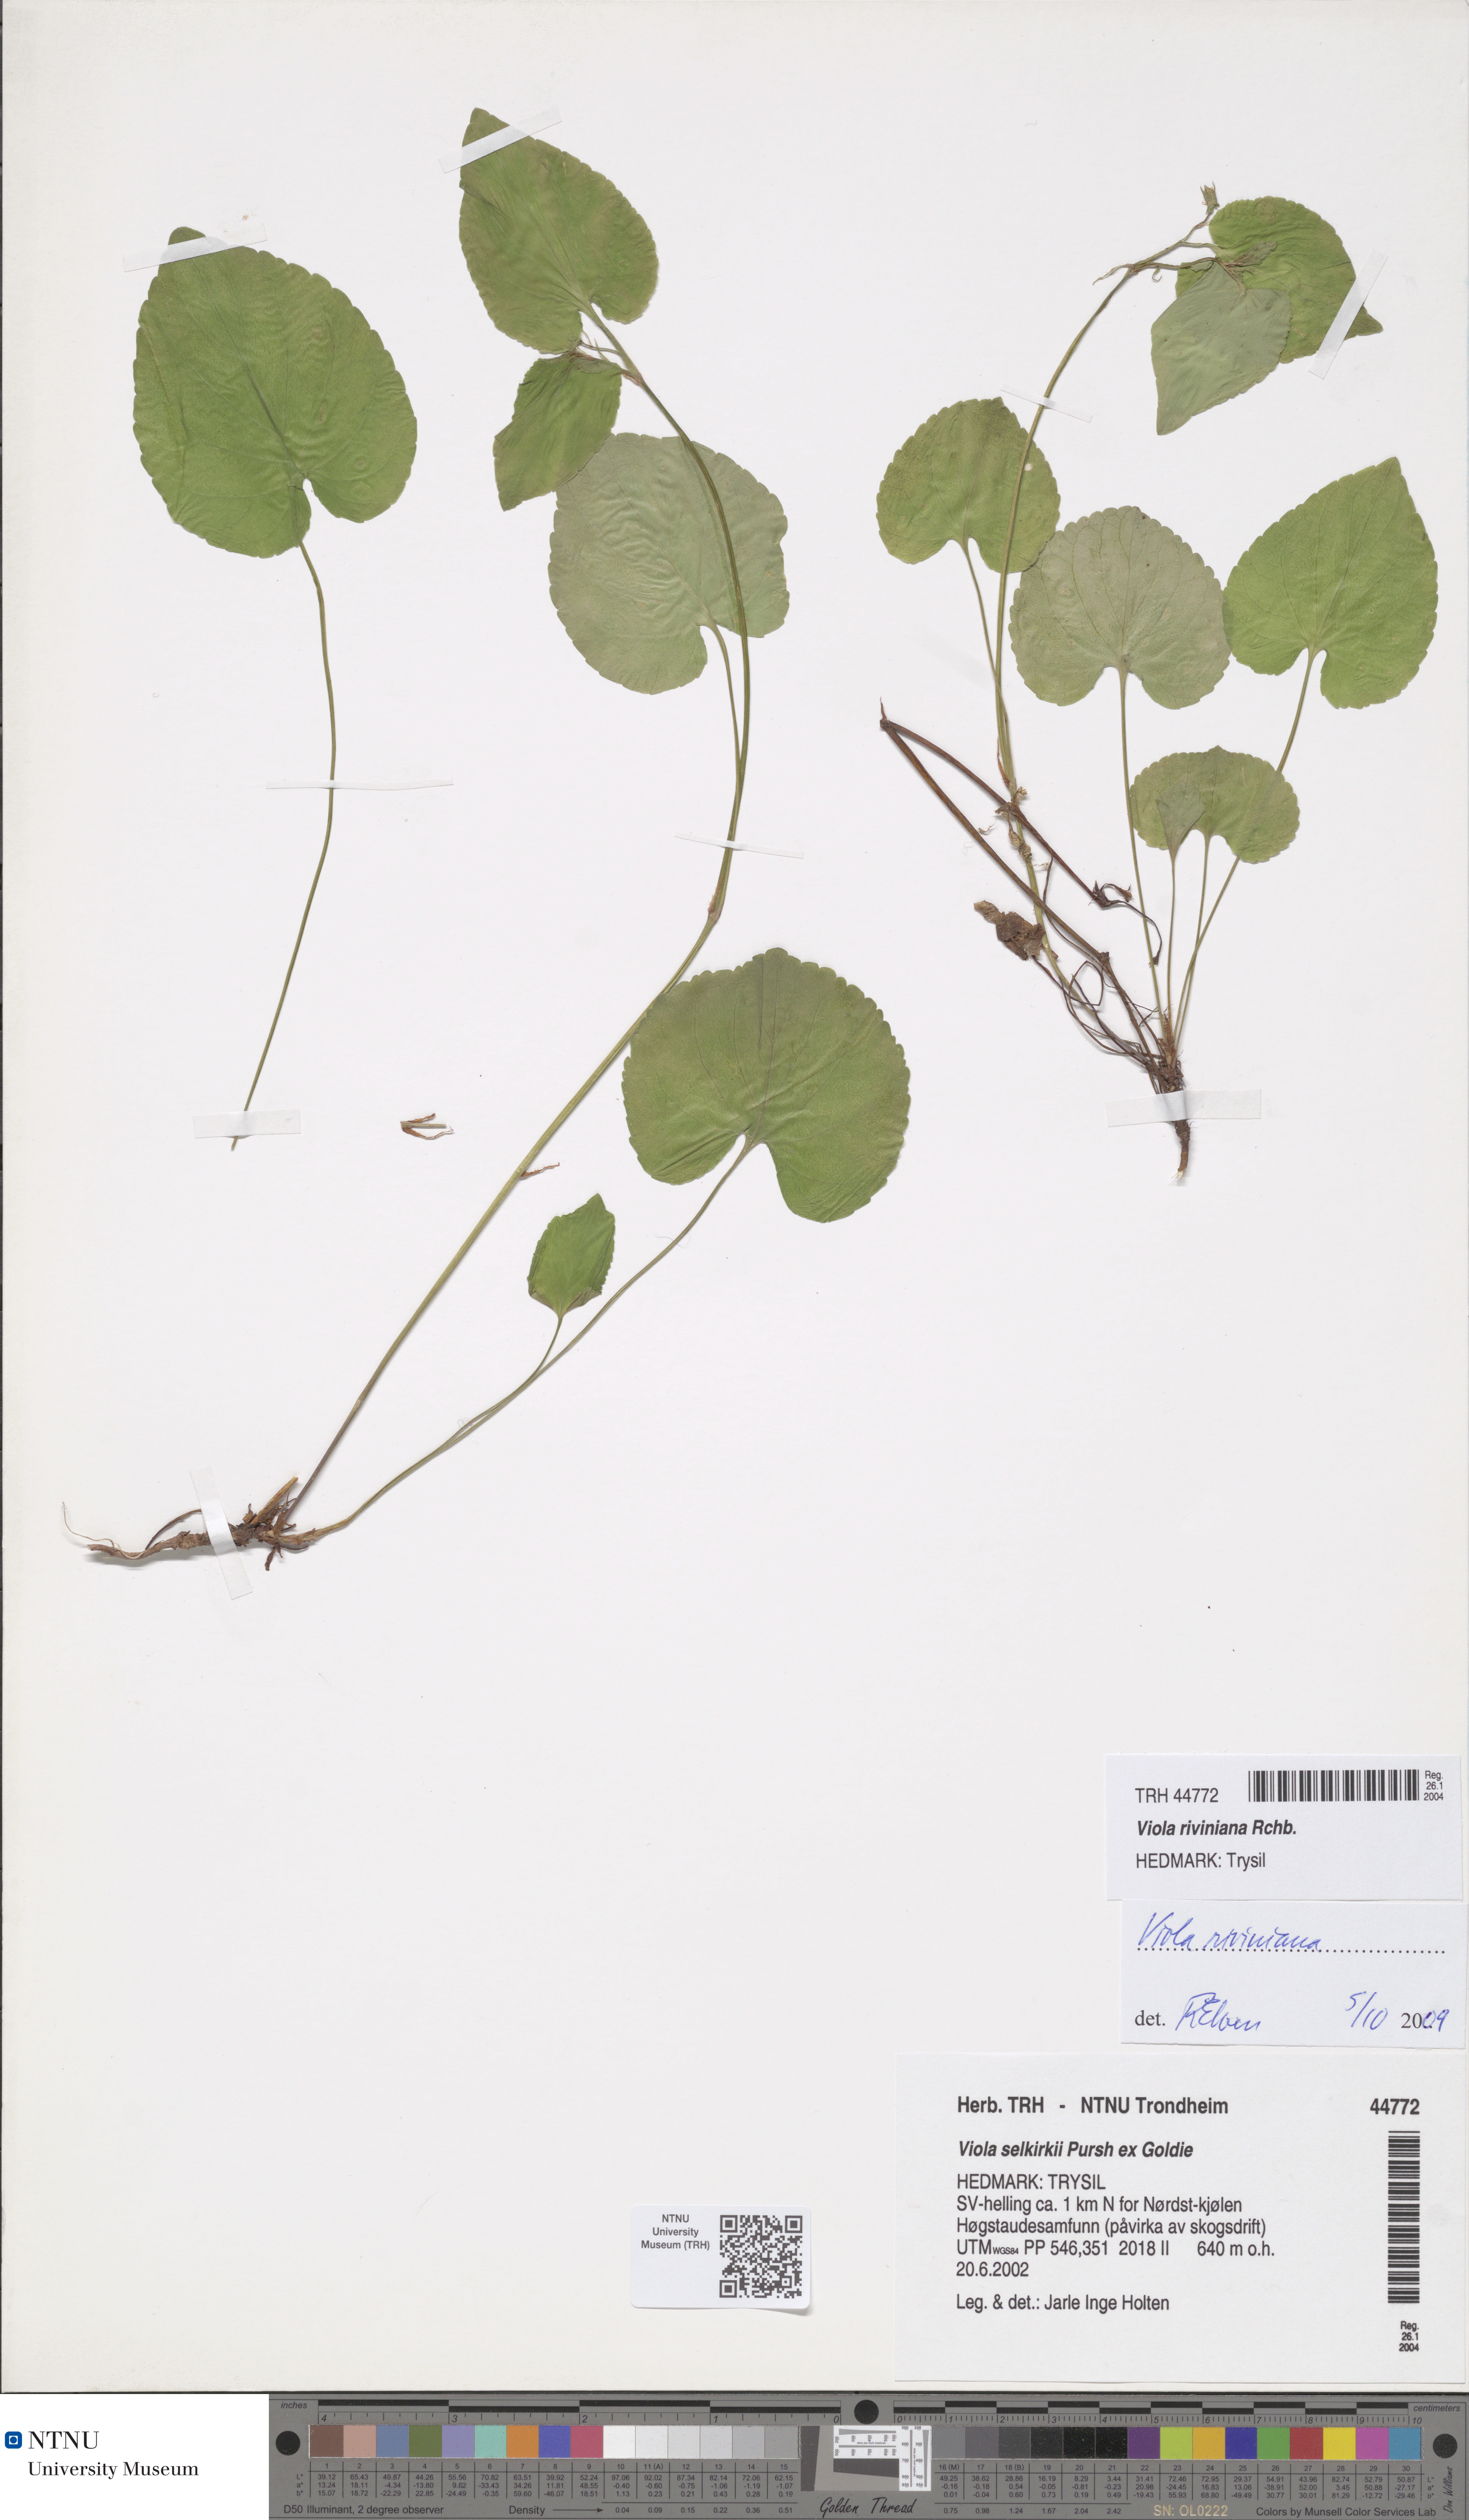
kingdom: Plantae
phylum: Tracheophyta
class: Magnoliopsida
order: Malpighiales
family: Violaceae
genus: Viola
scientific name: Viola riviniana
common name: Common dog-violet
